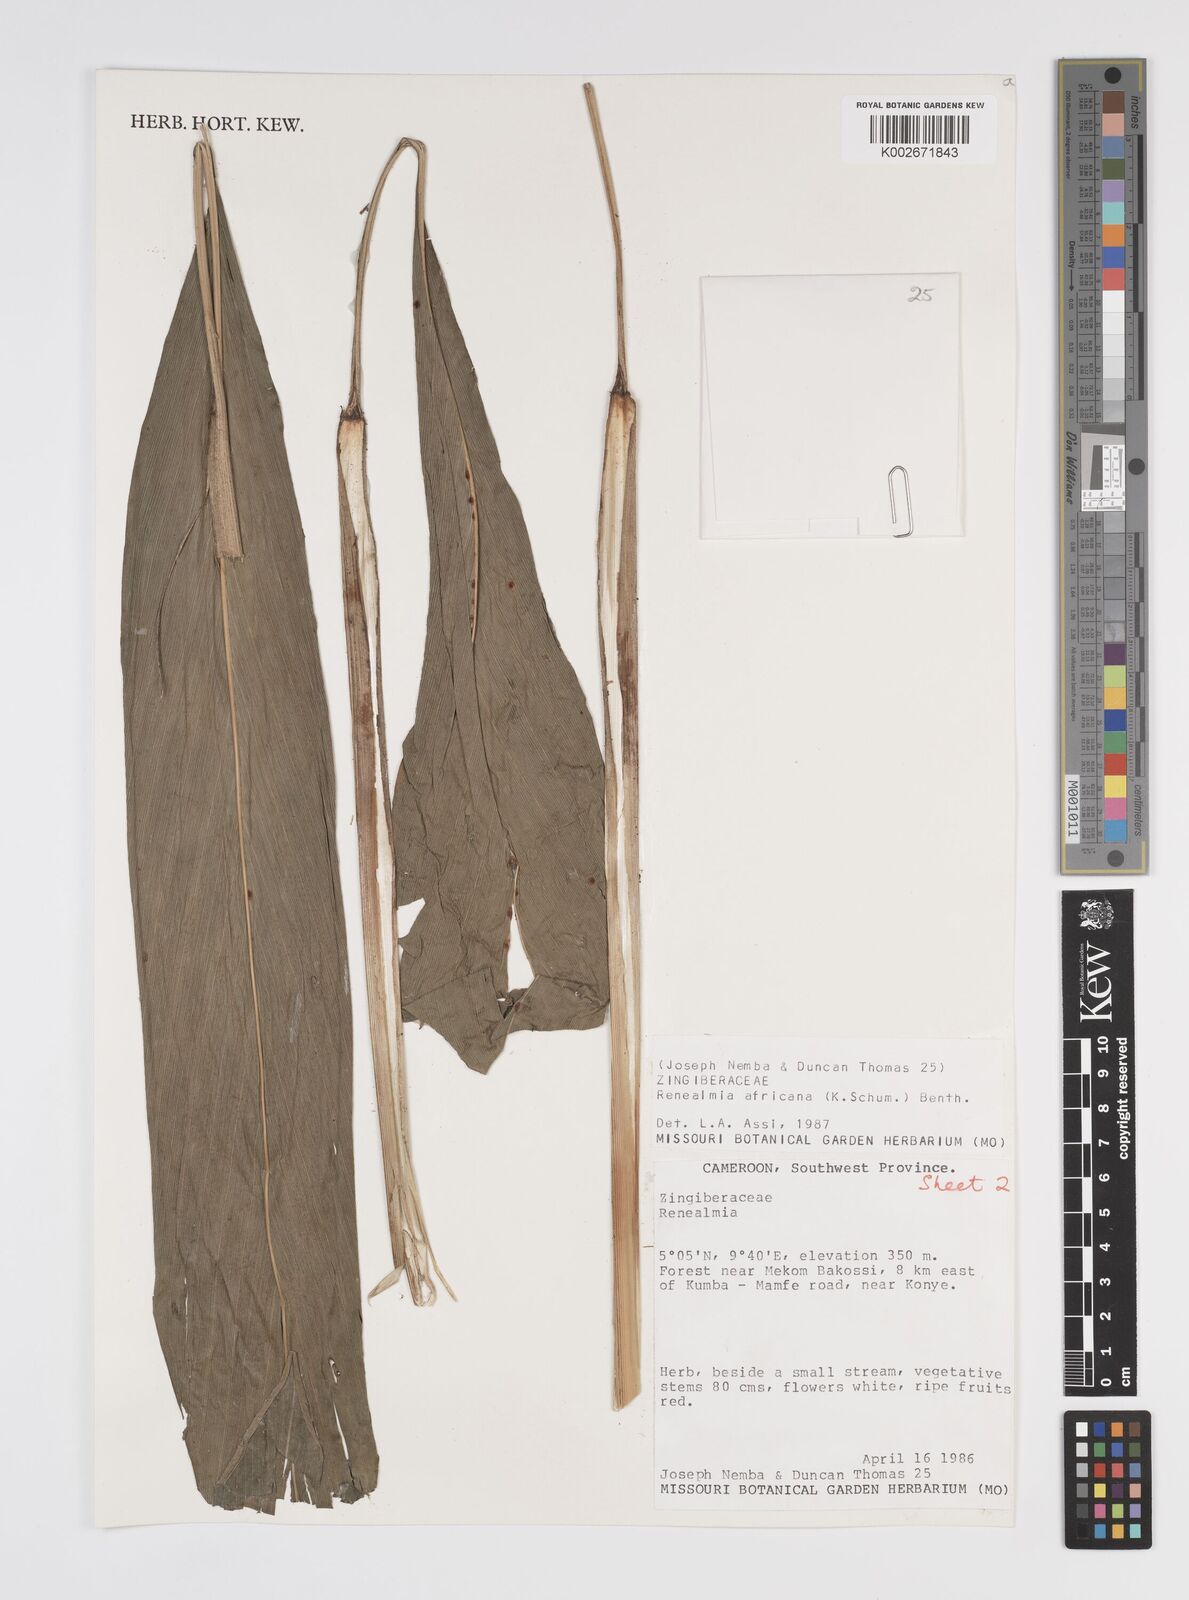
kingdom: Plantae
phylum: Tracheophyta
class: Liliopsida
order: Zingiberales
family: Zingiberaceae
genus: Renealmia
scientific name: Renealmia africana
